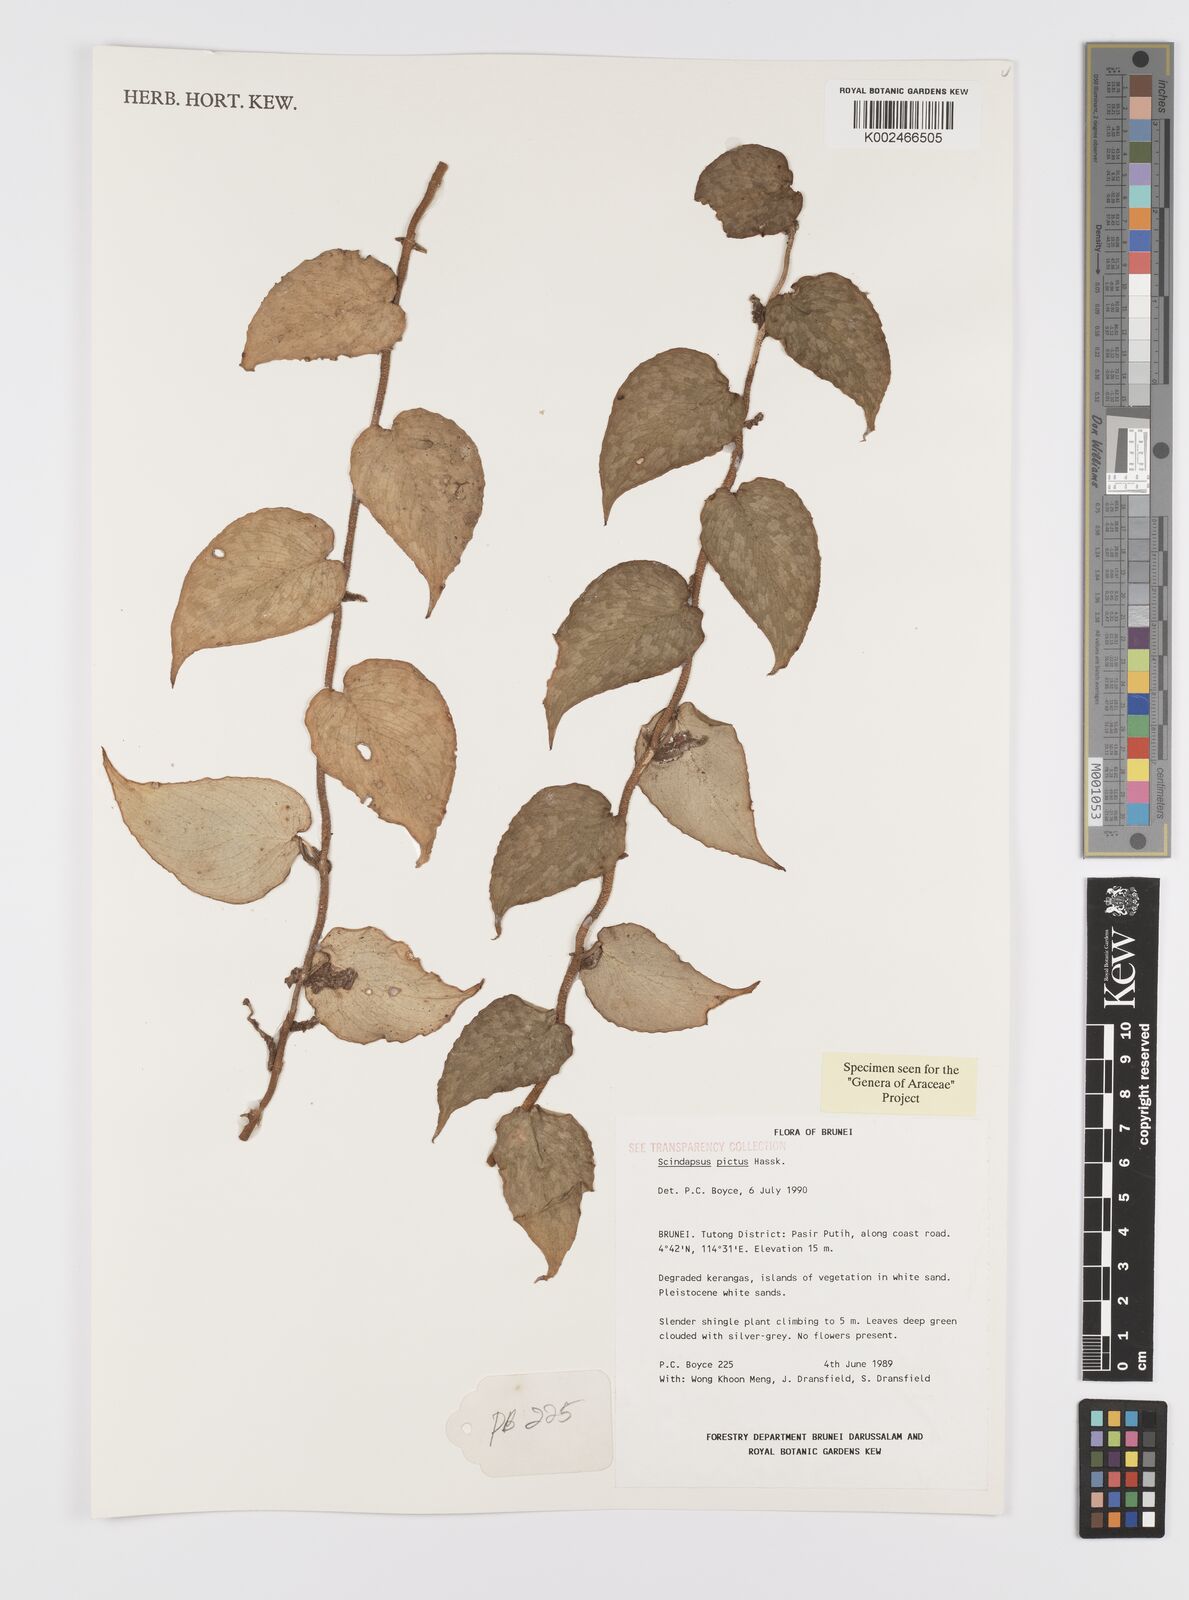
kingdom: Plantae
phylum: Tracheophyta
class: Liliopsida
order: Alismatales
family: Araceae
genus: Scindapsus
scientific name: Scindapsus pictus
